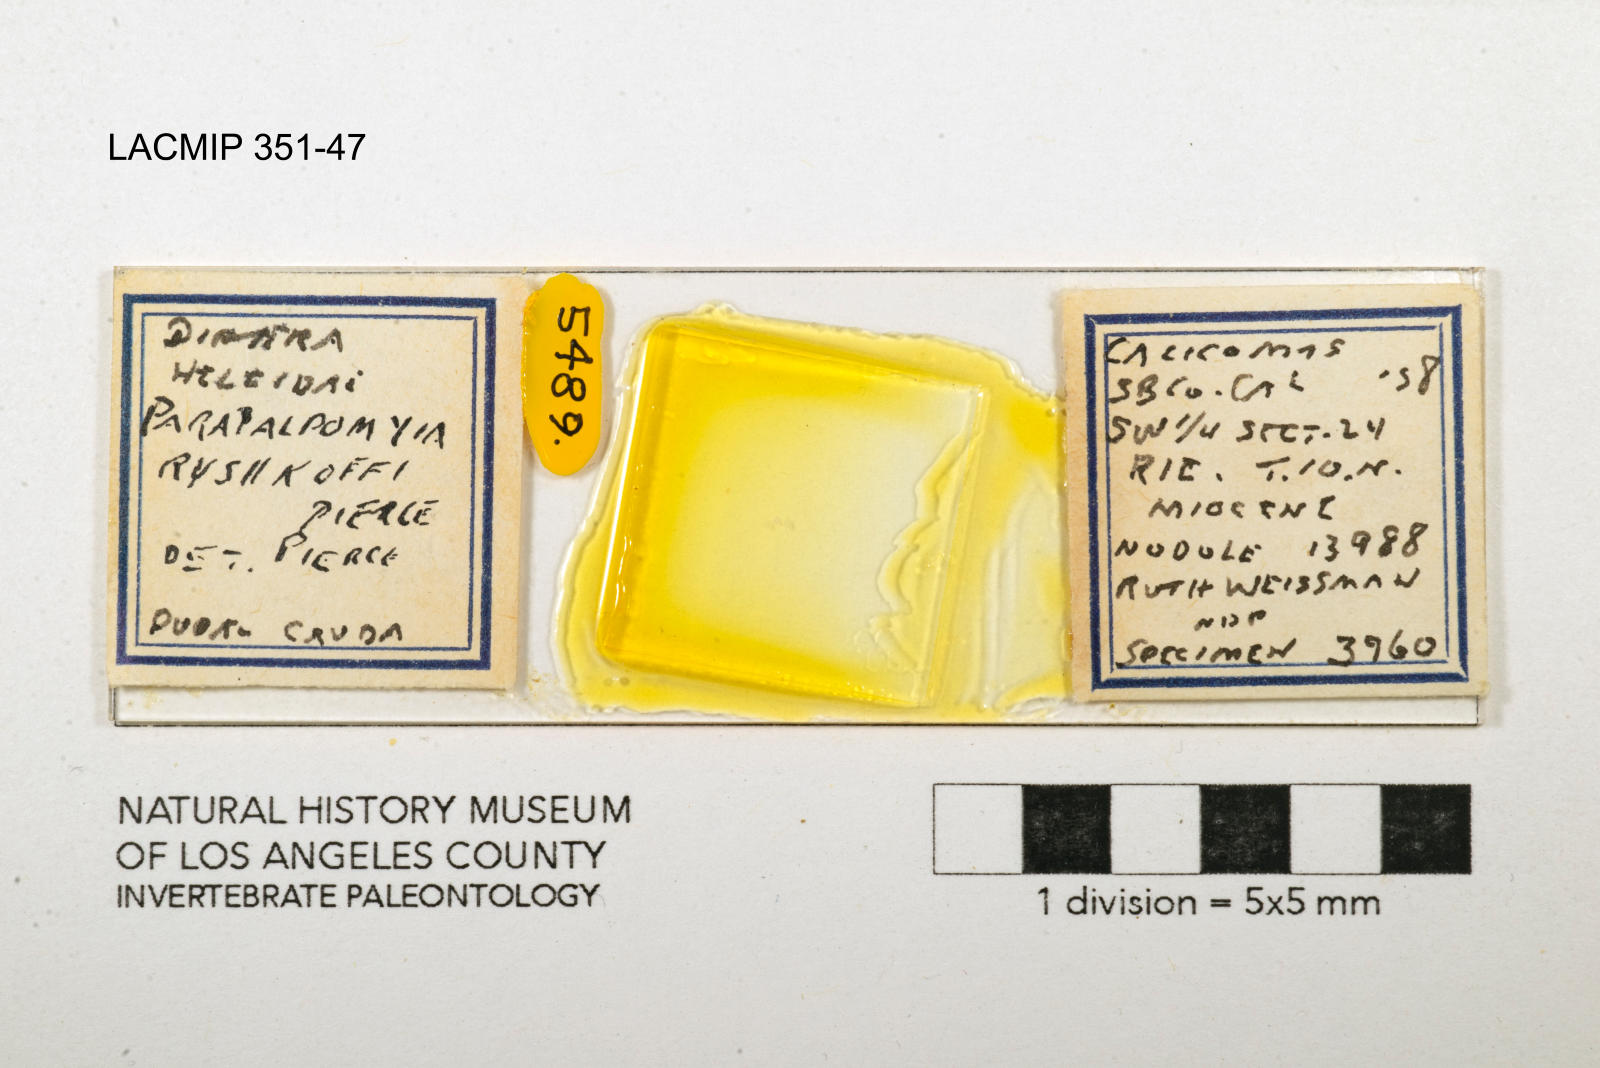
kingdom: Animalia
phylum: Arthropoda
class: Insecta
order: Diptera
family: Ceratopogonidae
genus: Palpomyia
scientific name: Palpomyia ryshkoffi
